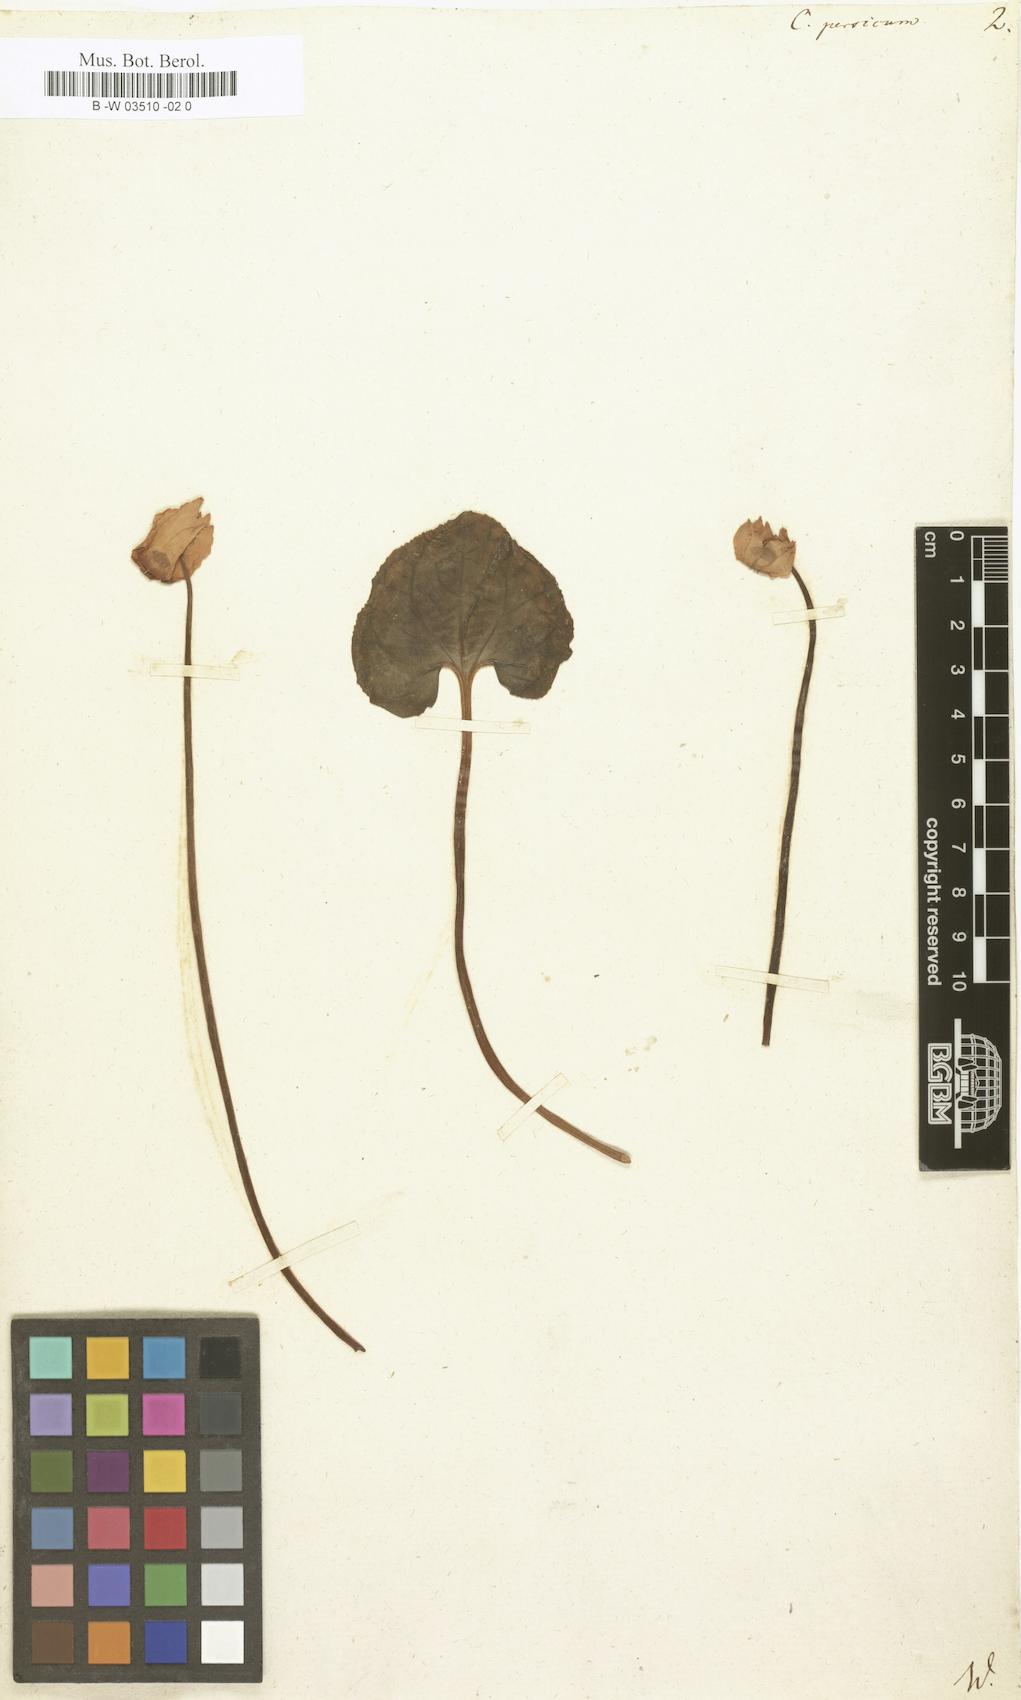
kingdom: Plantae
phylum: Tracheophyta
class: Magnoliopsida
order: Ericales
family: Primulaceae
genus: Cyclamen
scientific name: Cyclamen persicum
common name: Florist's cyclamen
